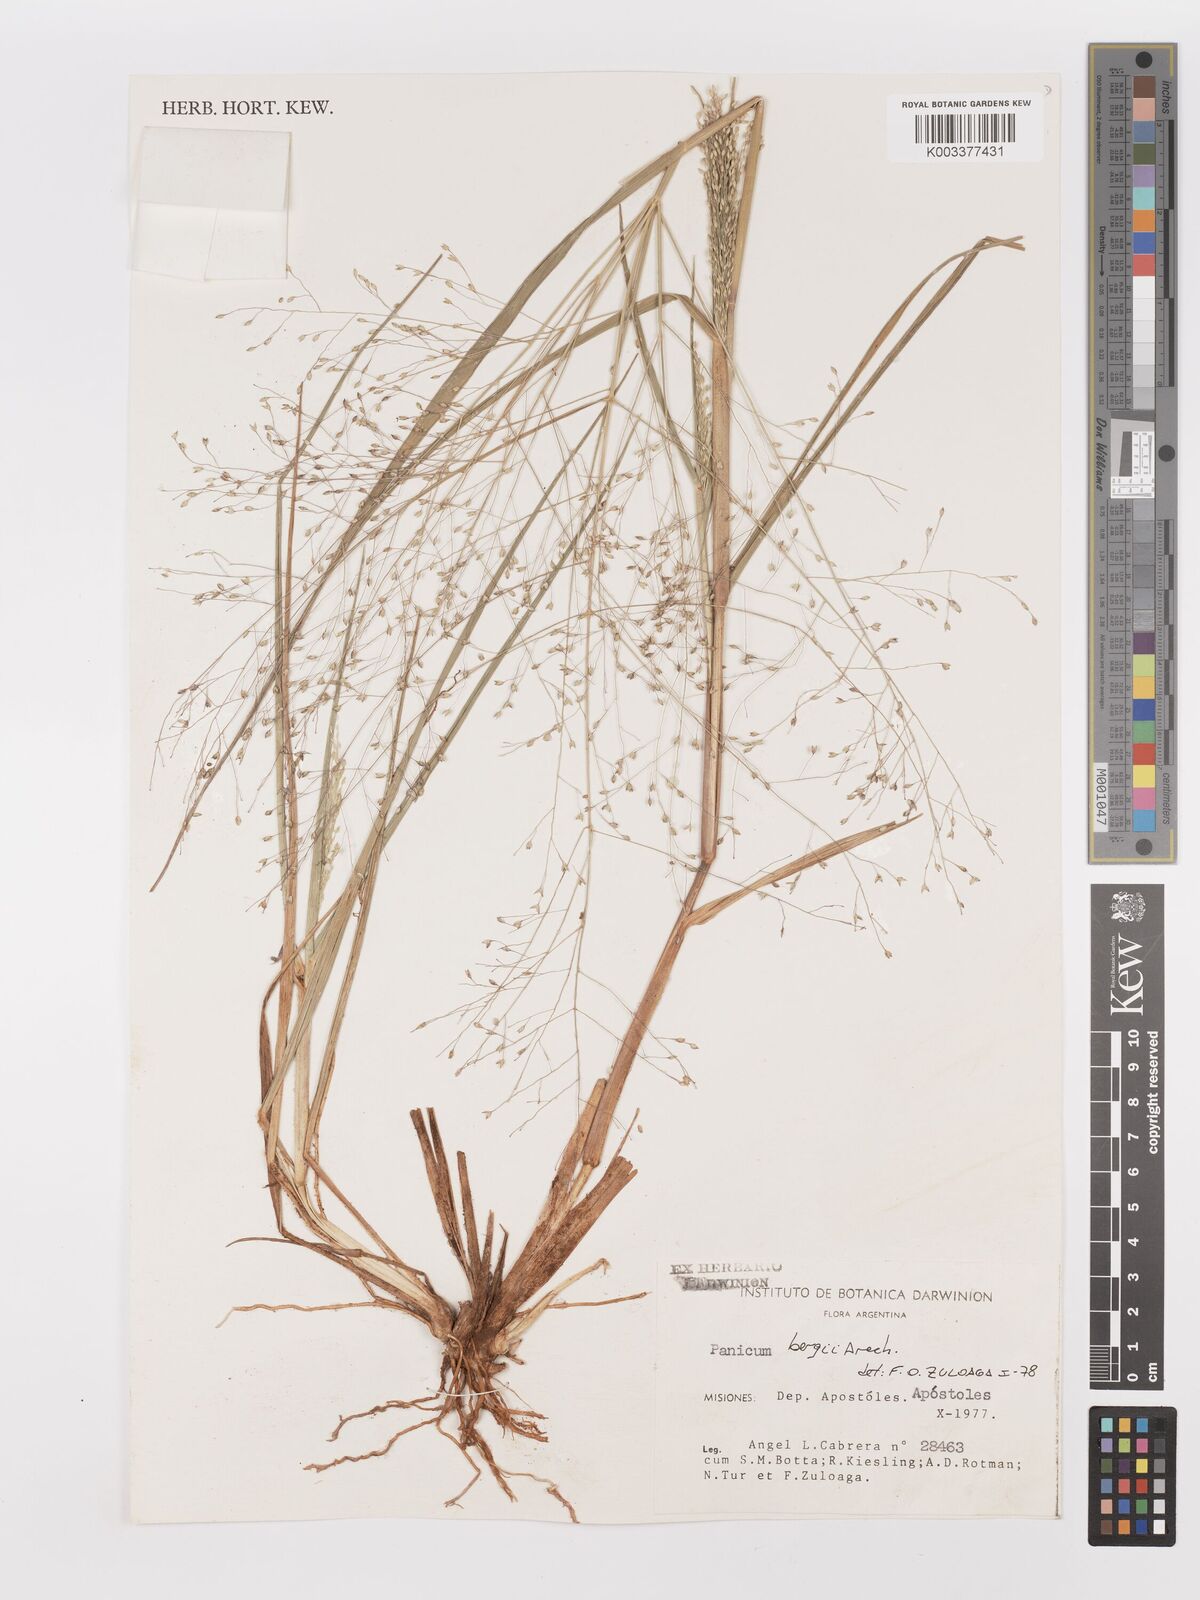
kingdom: Plantae
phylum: Tracheophyta
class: Liliopsida
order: Poales
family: Poaceae
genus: Panicum
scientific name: Panicum bergii
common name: Berg's panicgrass
